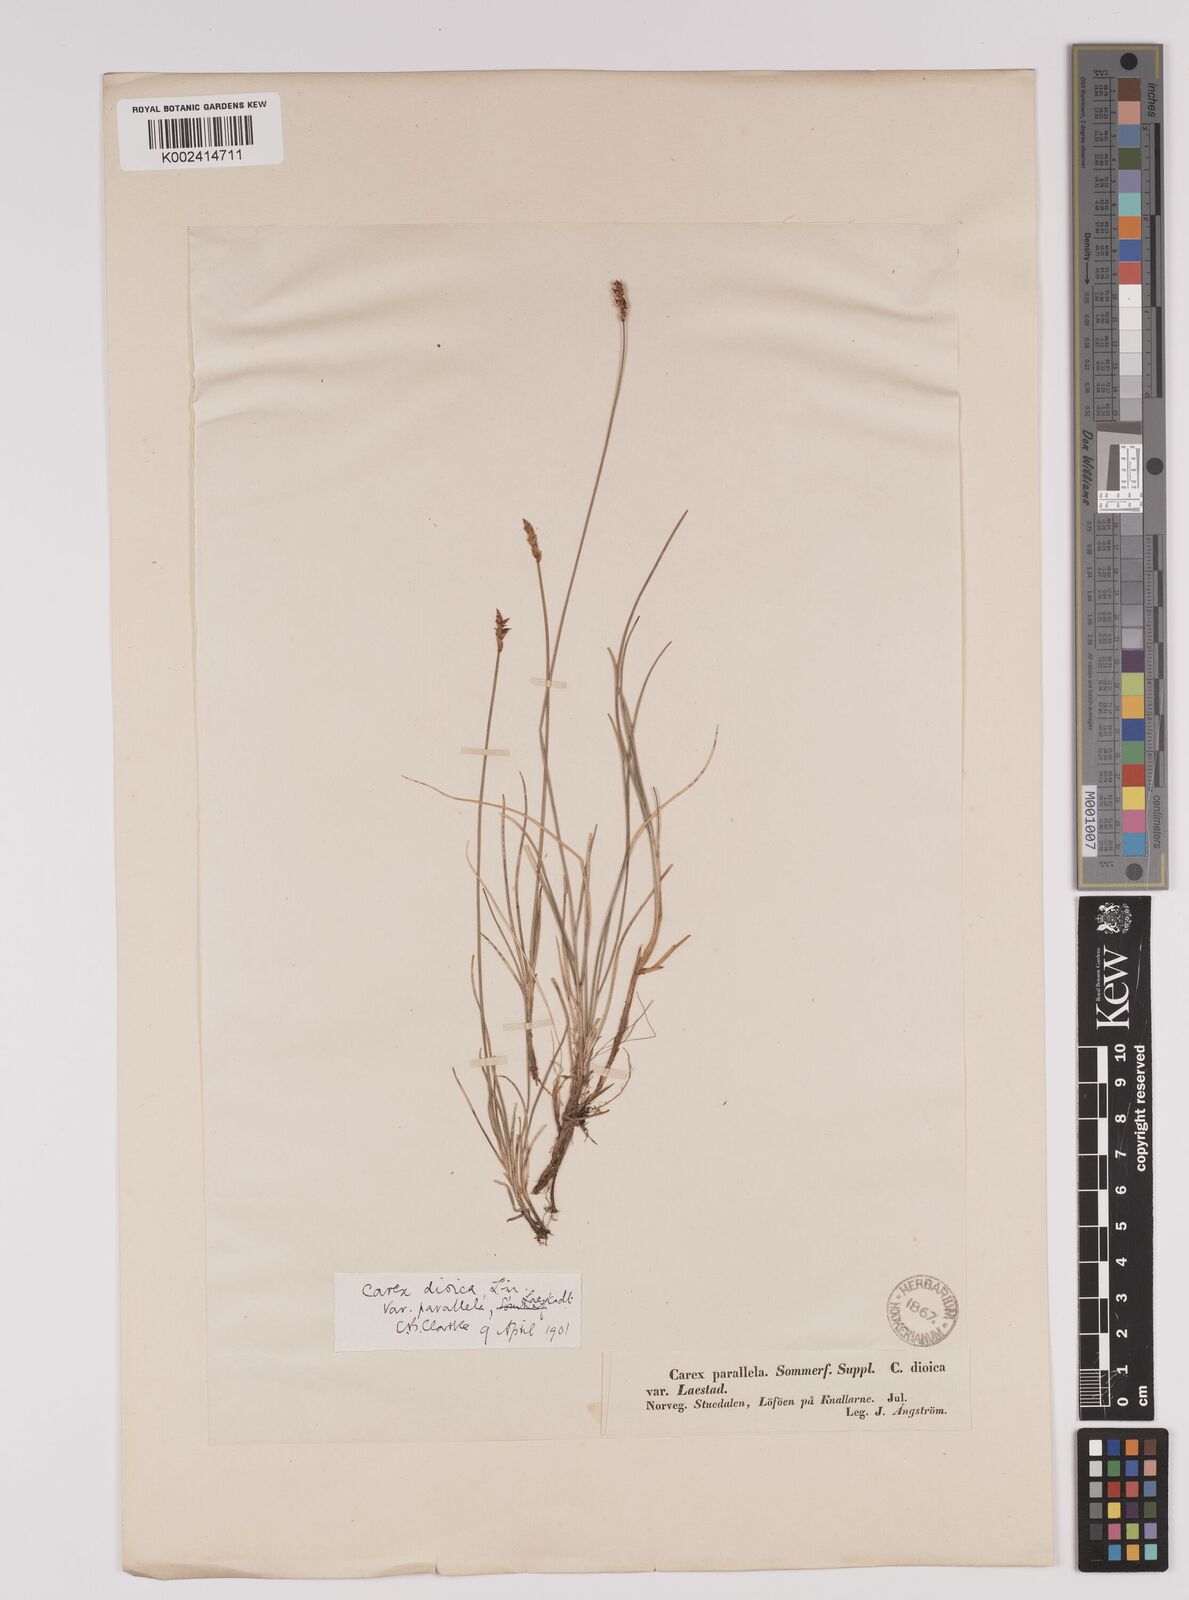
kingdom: Plantae
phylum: Tracheophyta
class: Liliopsida
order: Poales
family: Cyperaceae
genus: Carex
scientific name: Carex parallela
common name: Parallel sedge
